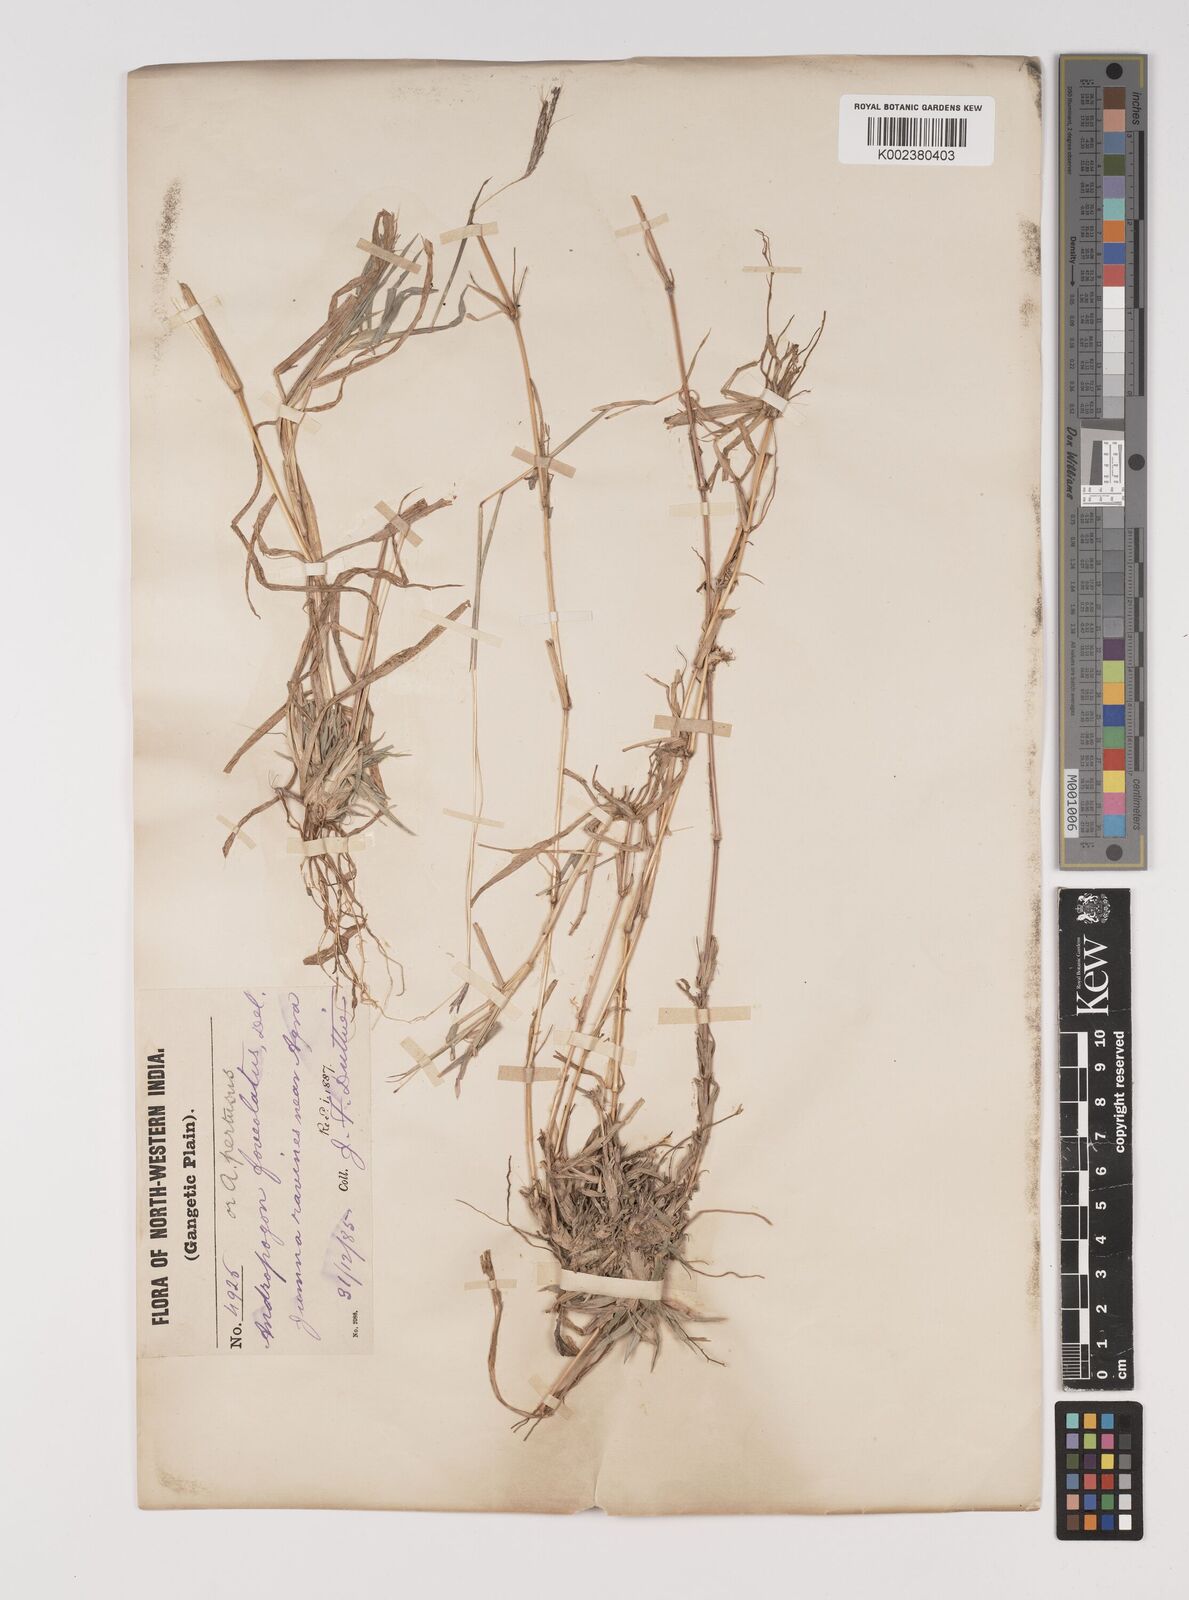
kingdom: Plantae
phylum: Tracheophyta
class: Liliopsida
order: Poales
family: Poaceae
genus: Bothriochloa
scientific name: Bothriochloa pertusa
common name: Pitted beardgrass
